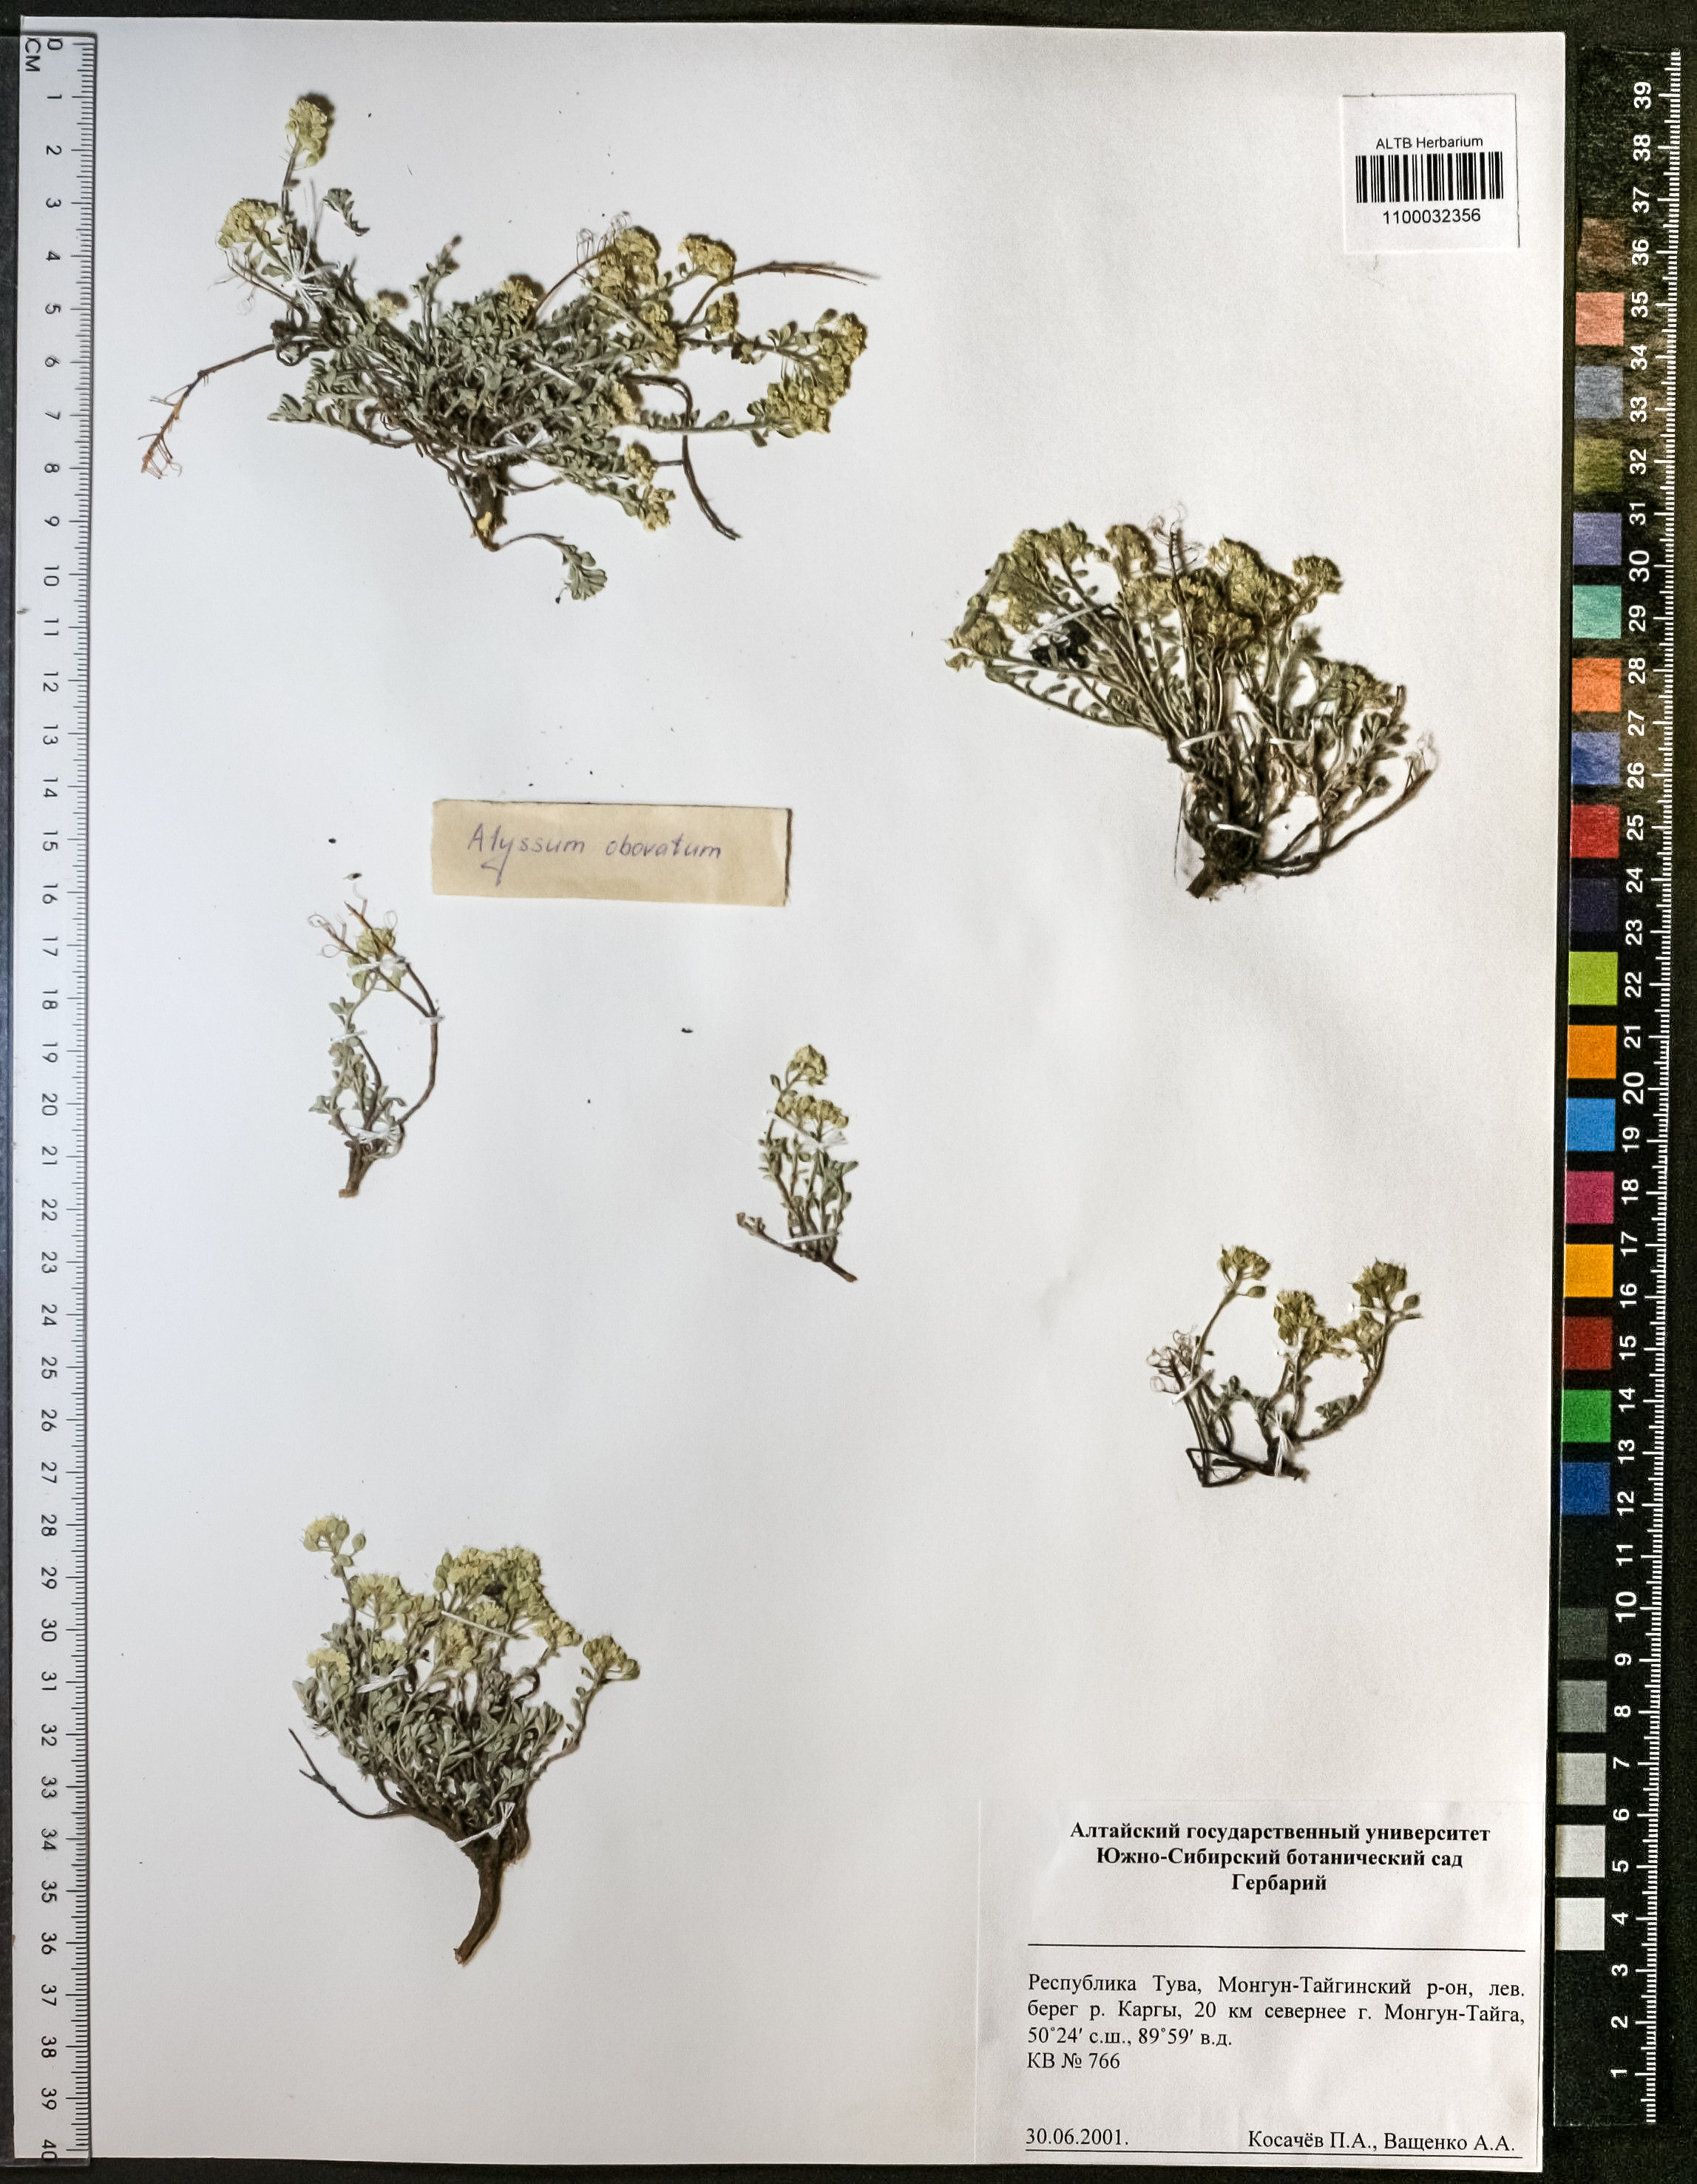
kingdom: Plantae
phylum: Tracheophyta
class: Magnoliopsida
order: Brassicales
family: Brassicaceae
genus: Odontarrhena
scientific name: Odontarrhena obovata
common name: American alyssum
